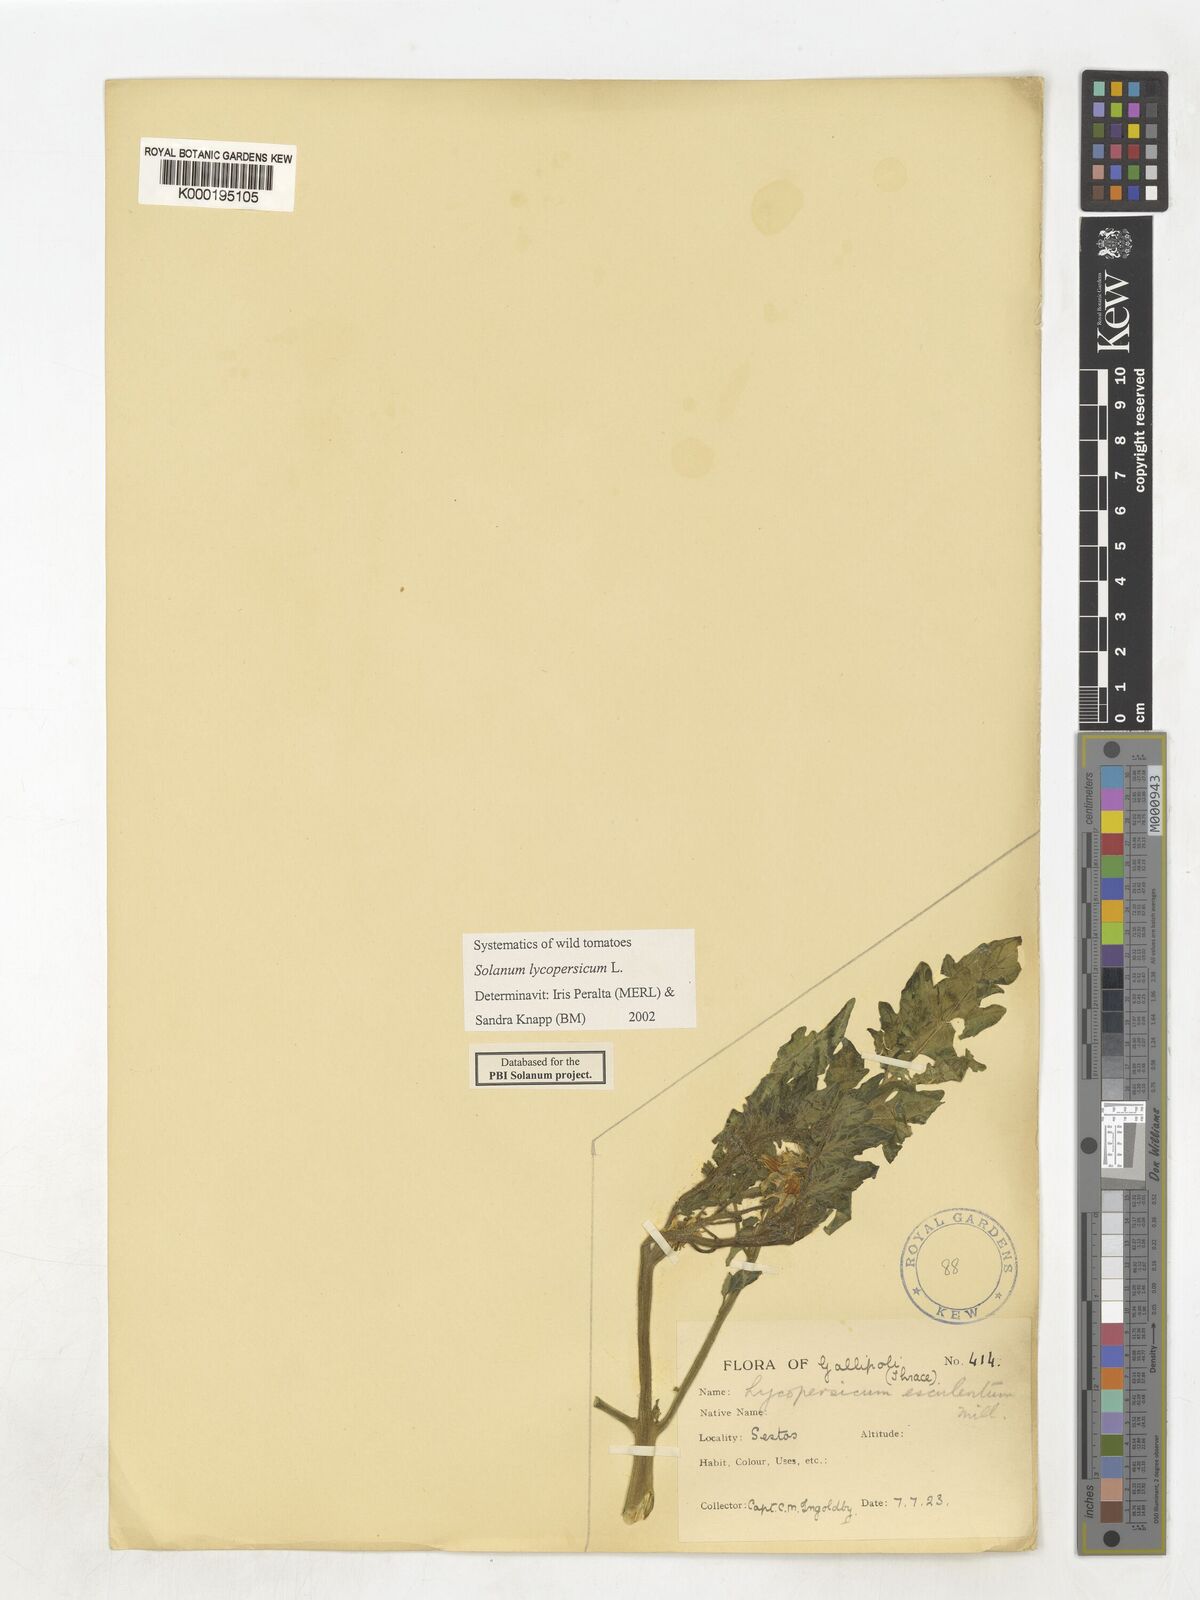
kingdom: Plantae
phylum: Tracheophyta
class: Magnoliopsida
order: Solanales
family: Solanaceae
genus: Solanum
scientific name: Solanum lycopersicum
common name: Garden tomato
